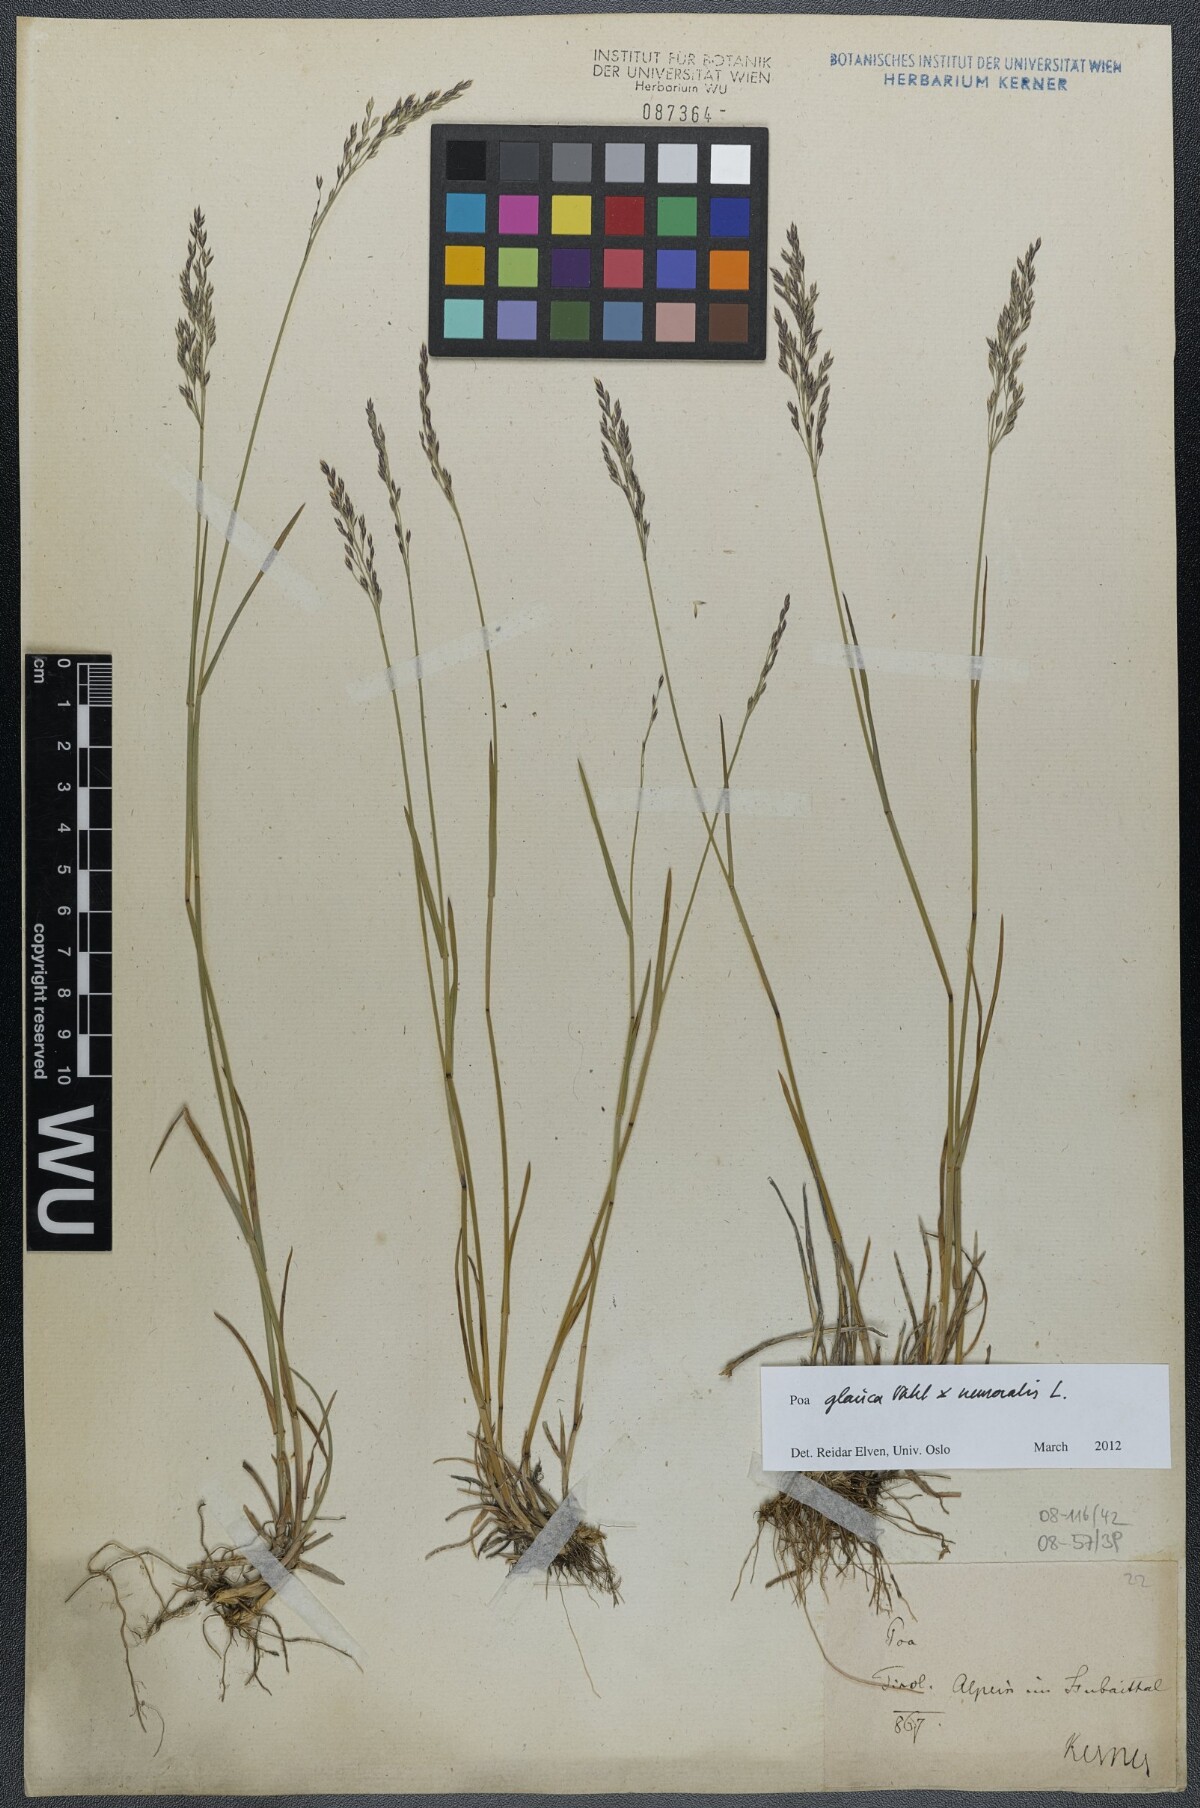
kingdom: Plantae
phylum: Tracheophyta
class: Liliopsida
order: Poales
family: Poaceae
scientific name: Poaceae
